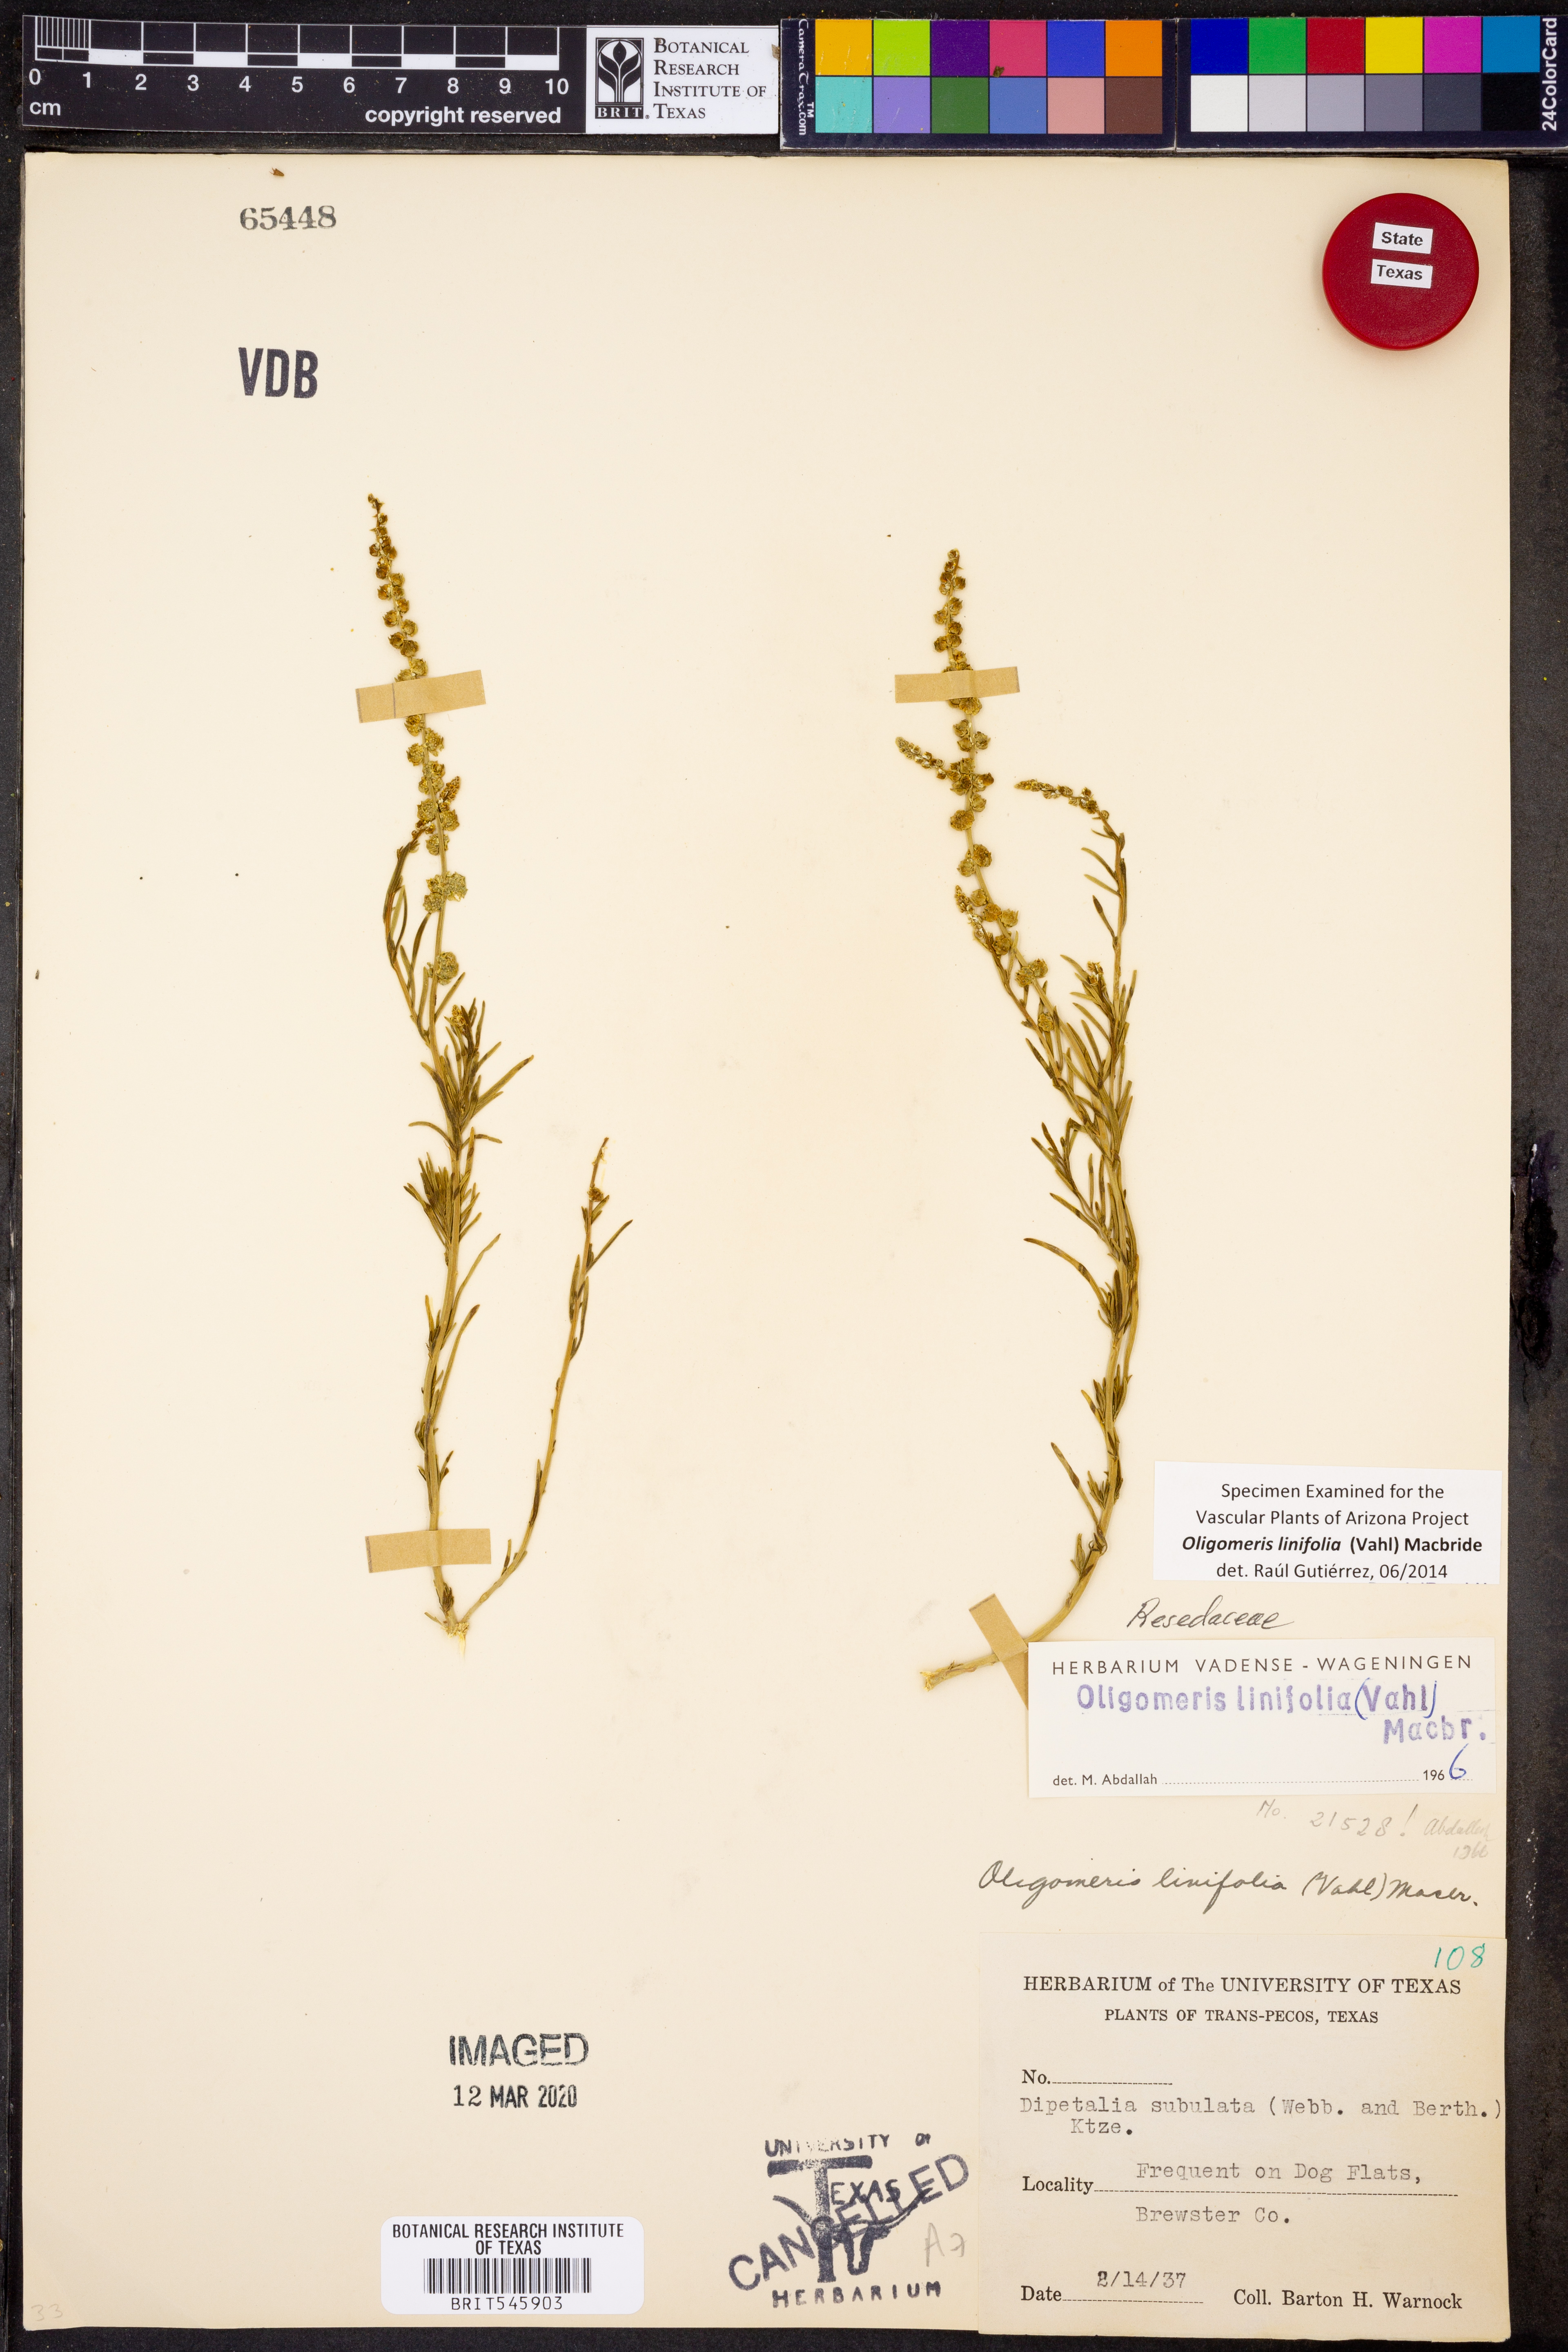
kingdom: Plantae
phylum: Tracheophyta
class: Magnoliopsida
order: Brassicales
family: Resedaceae
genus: Oligomeris
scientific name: Oligomeris linifolia
